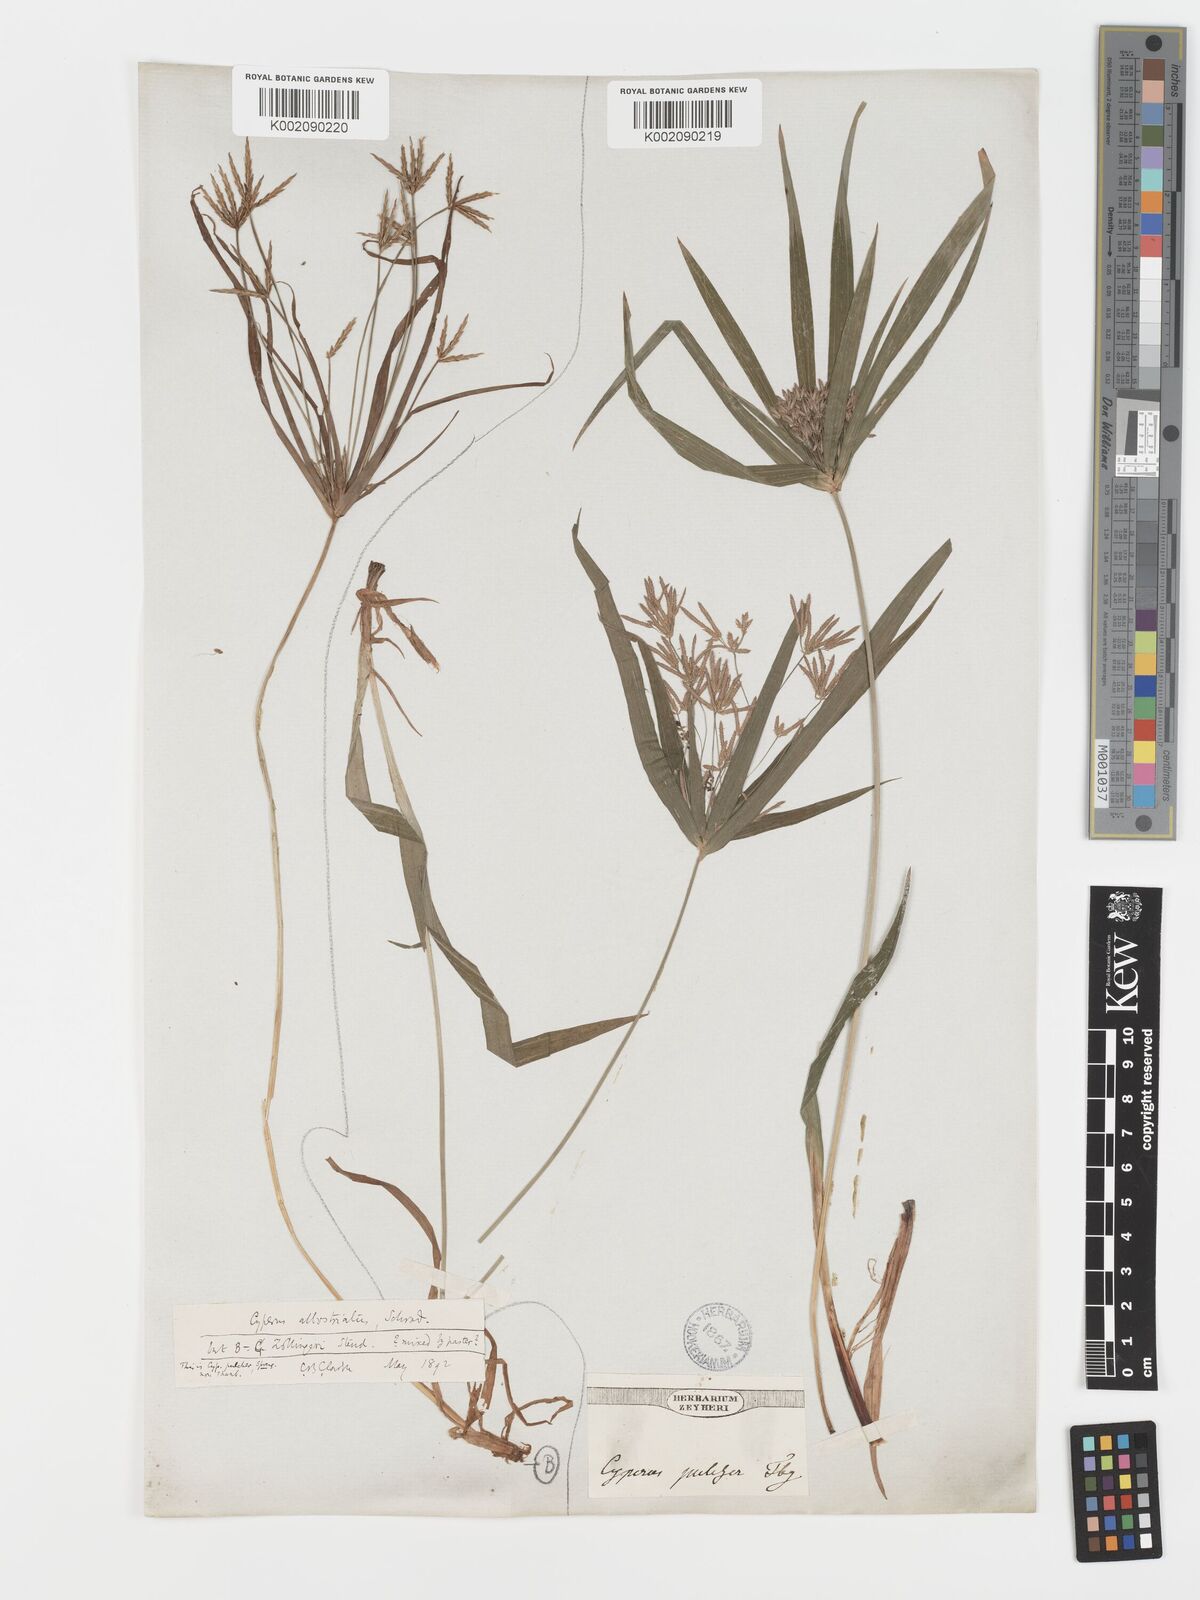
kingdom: Plantae
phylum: Tracheophyta
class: Liliopsida
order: Poales
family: Cyperaceae
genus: Cyperus
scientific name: Cyperus zollingeri
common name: Roadside flatsedge
